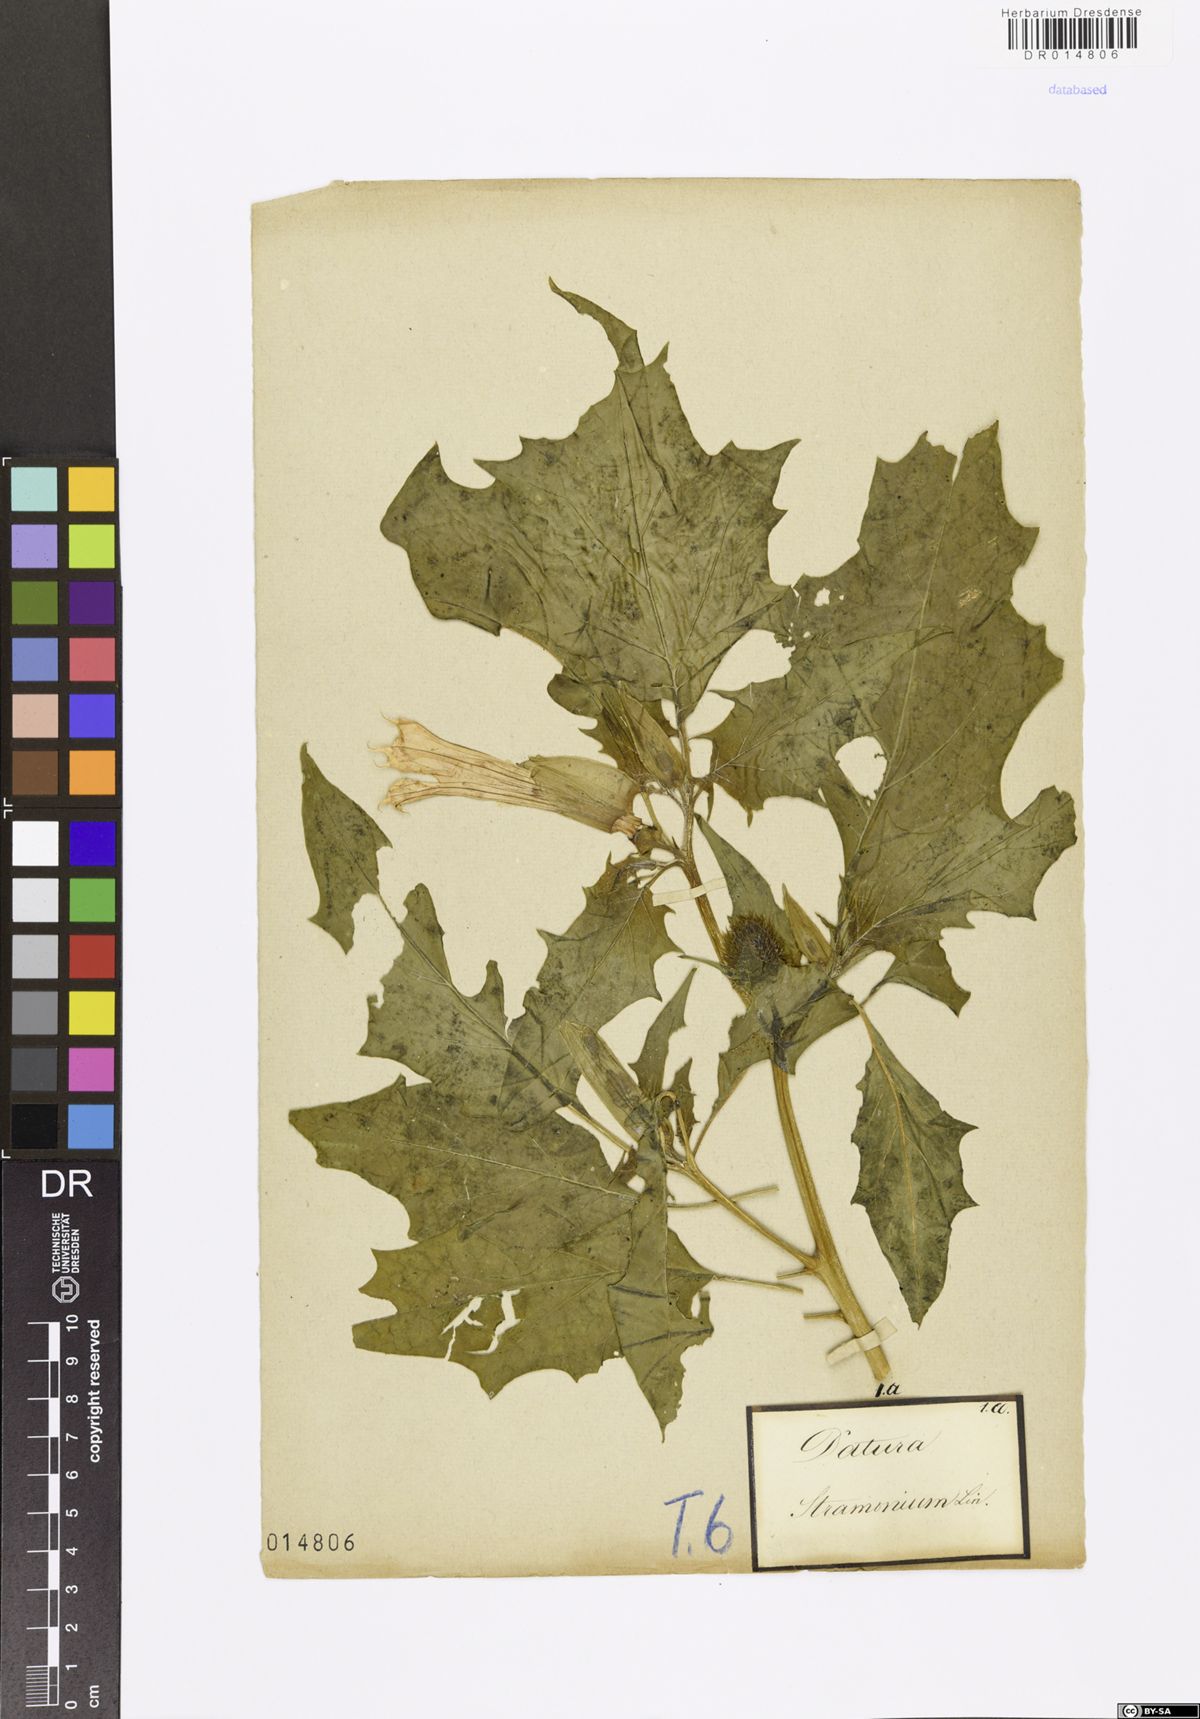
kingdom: Plantae
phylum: Tracheophyta
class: Magnoliopsida
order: Solanales
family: Solanaceae
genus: Datura
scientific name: Datura stramonium
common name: Thorn-apple
